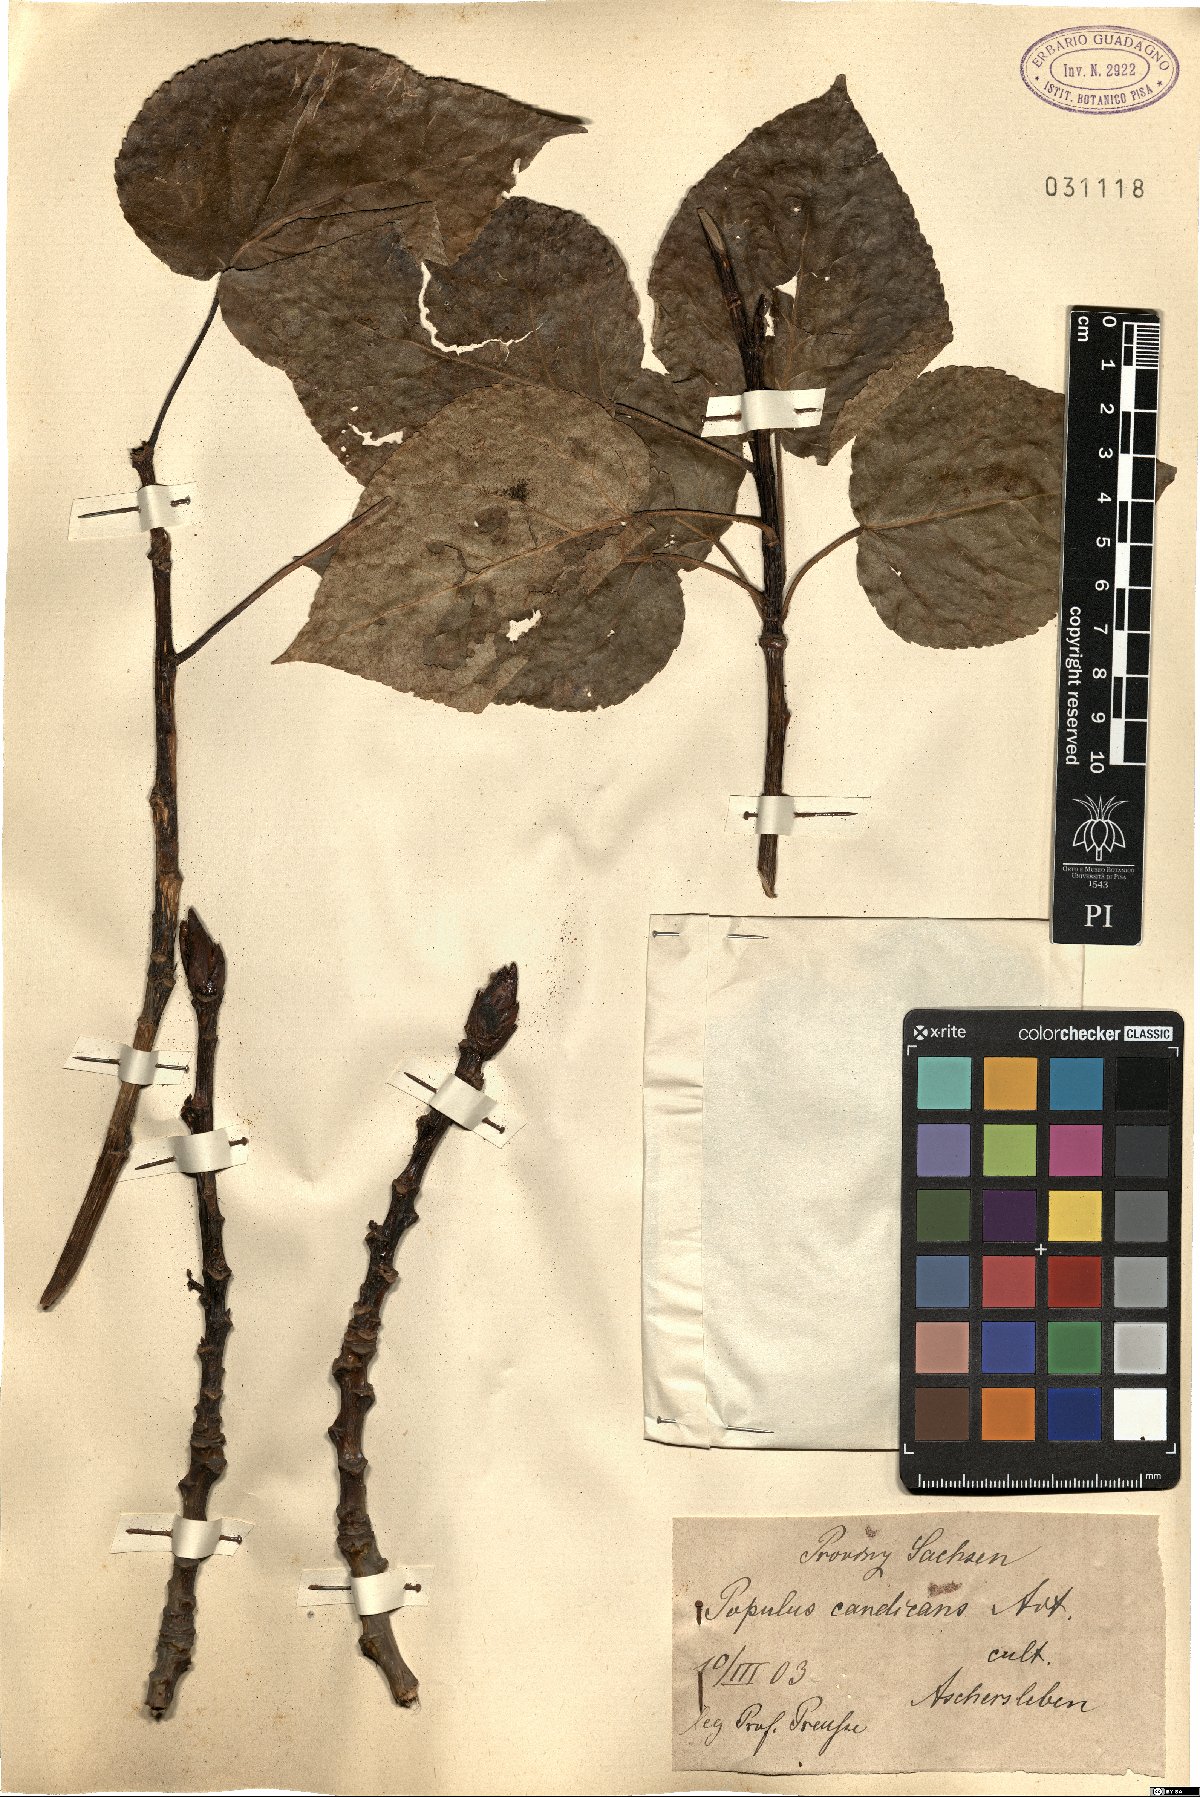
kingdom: Plantae
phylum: Tracheophyta
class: Magnoliopsida
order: Malpighiales
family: Salicaceae
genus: Populus
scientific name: Populus balsamifera
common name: Balsam poplar
